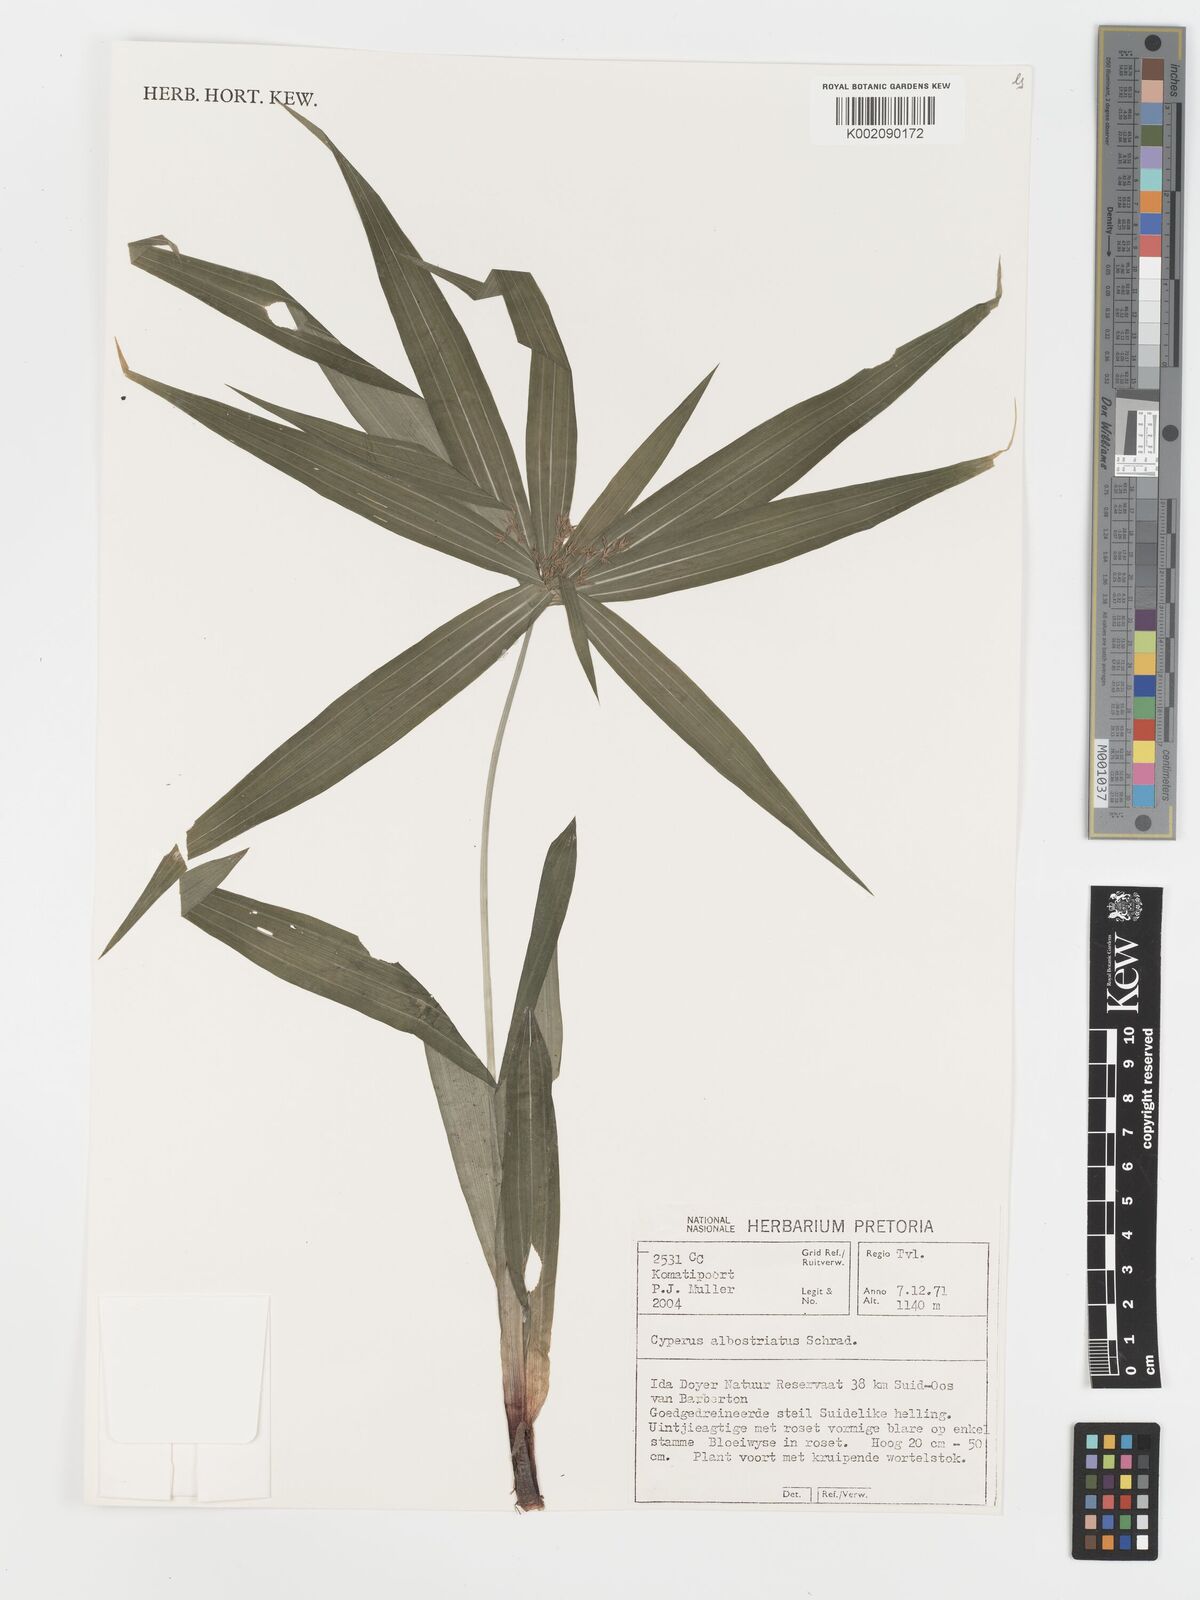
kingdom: Plantae
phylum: Tracheophyta
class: Liliopsida
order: Poales
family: Cyperaceae
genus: Cyperus
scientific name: Cyperus albostriatus
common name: Dwarf umbrella-grass
